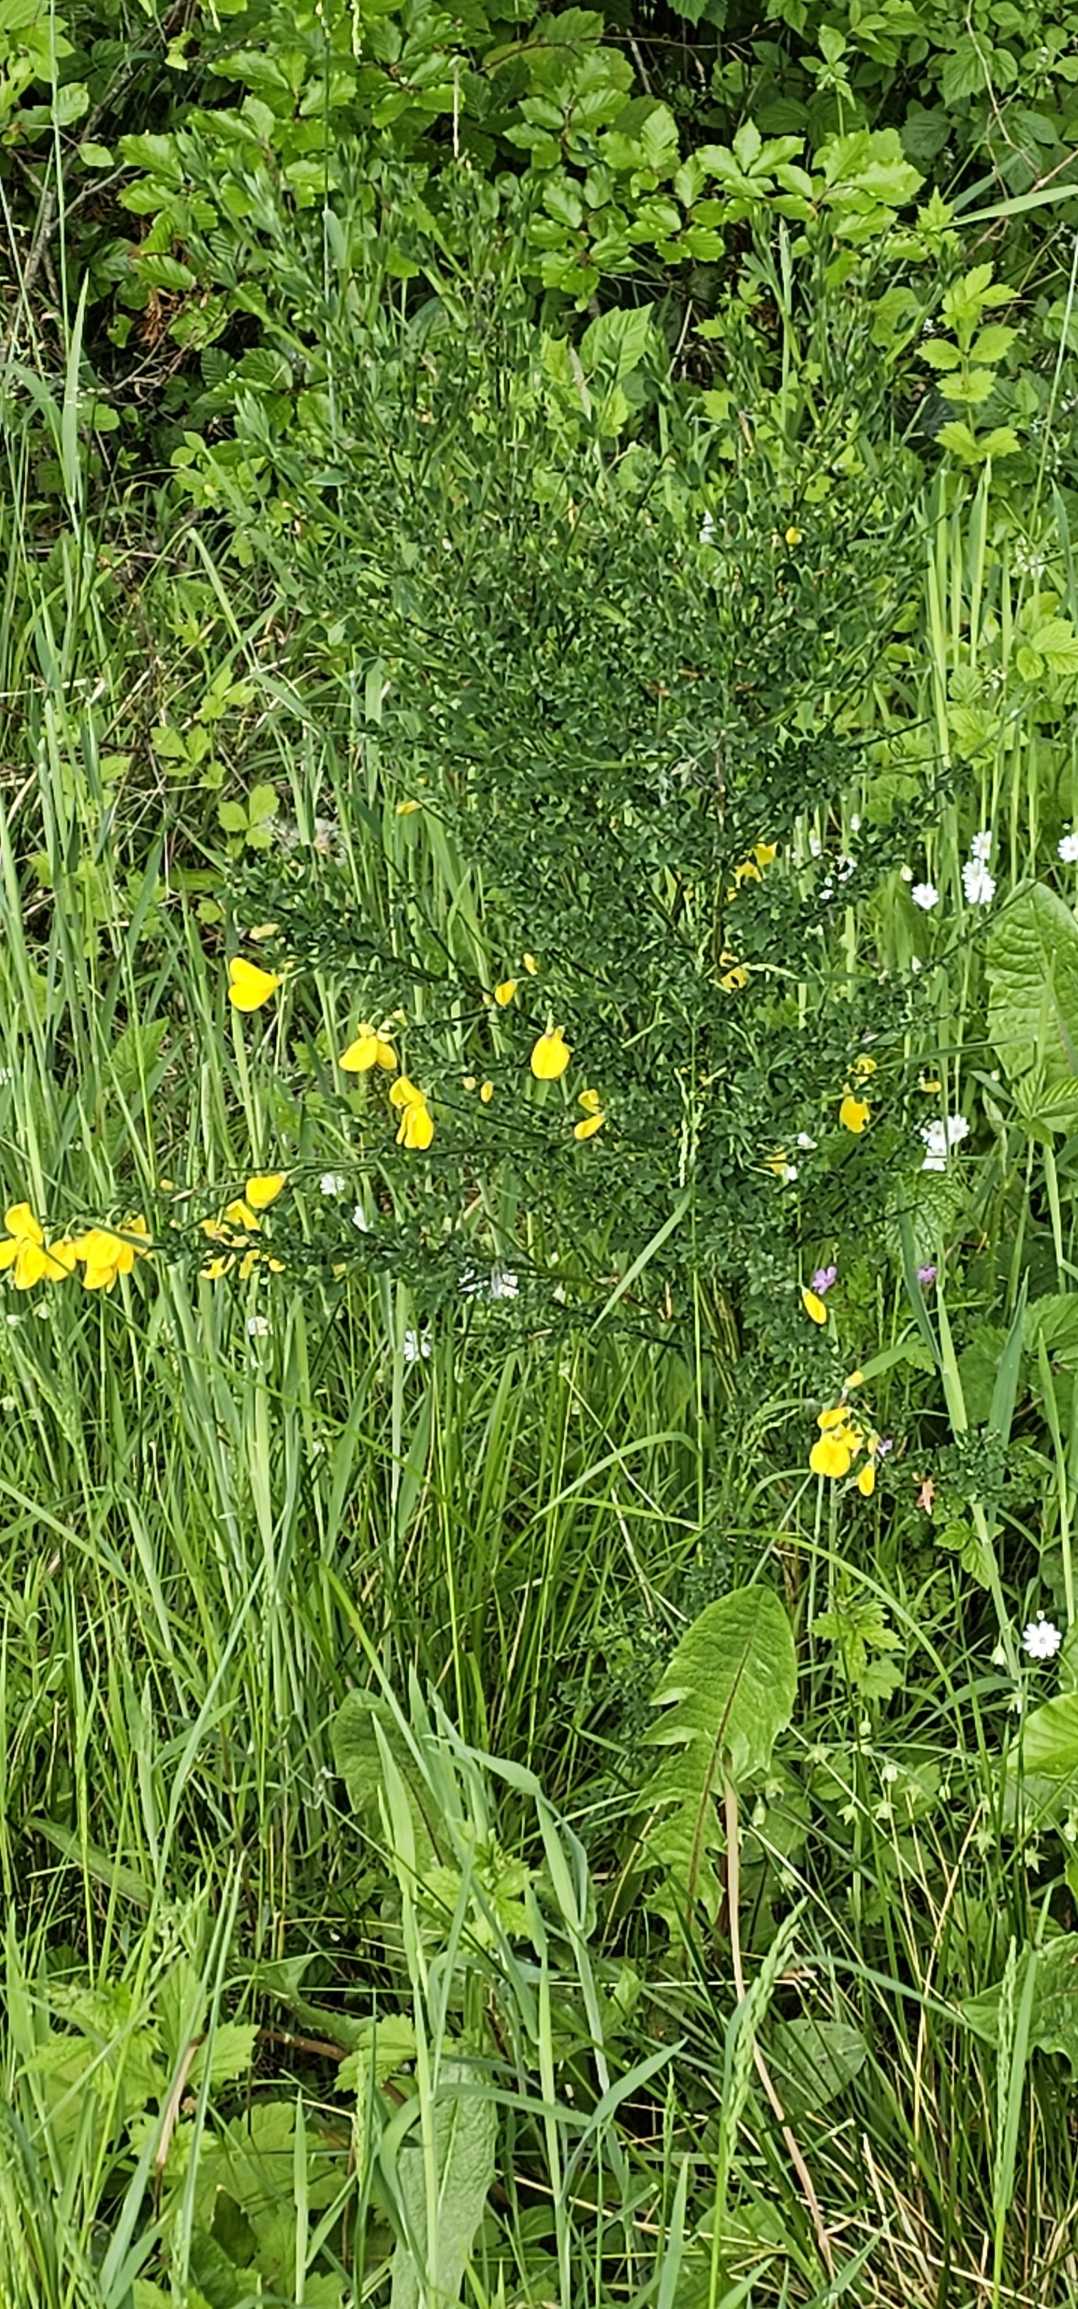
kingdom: Plantae
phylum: Tracheophyta
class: Magnoliopsida
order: Fabales
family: Fabaceae
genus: Cytisus
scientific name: Cytisus scoparius
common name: Almindelig gyvel
